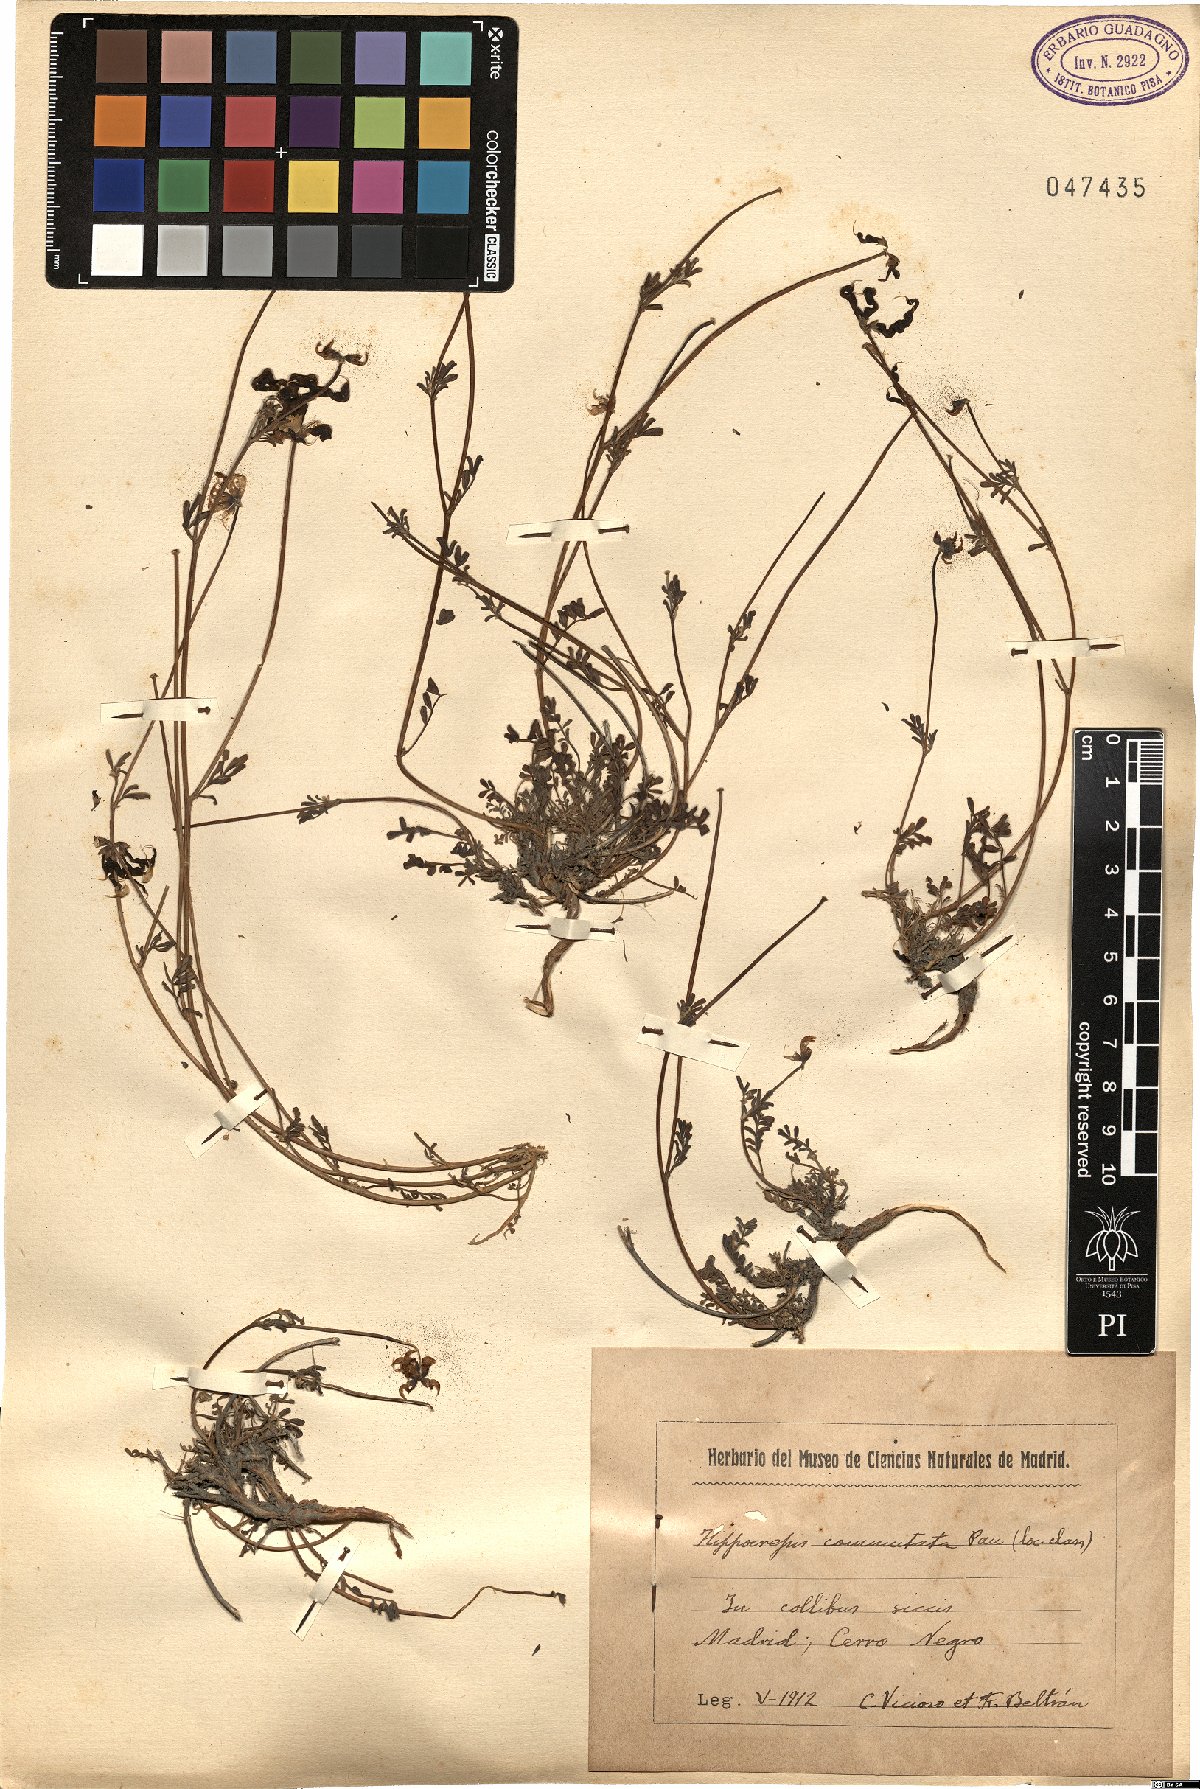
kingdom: Plantae
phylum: Tracheophyta
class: Magnoliopsida
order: Fabales
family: Fabaceae
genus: Hippocrepis
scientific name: Hippocrepis scabra
